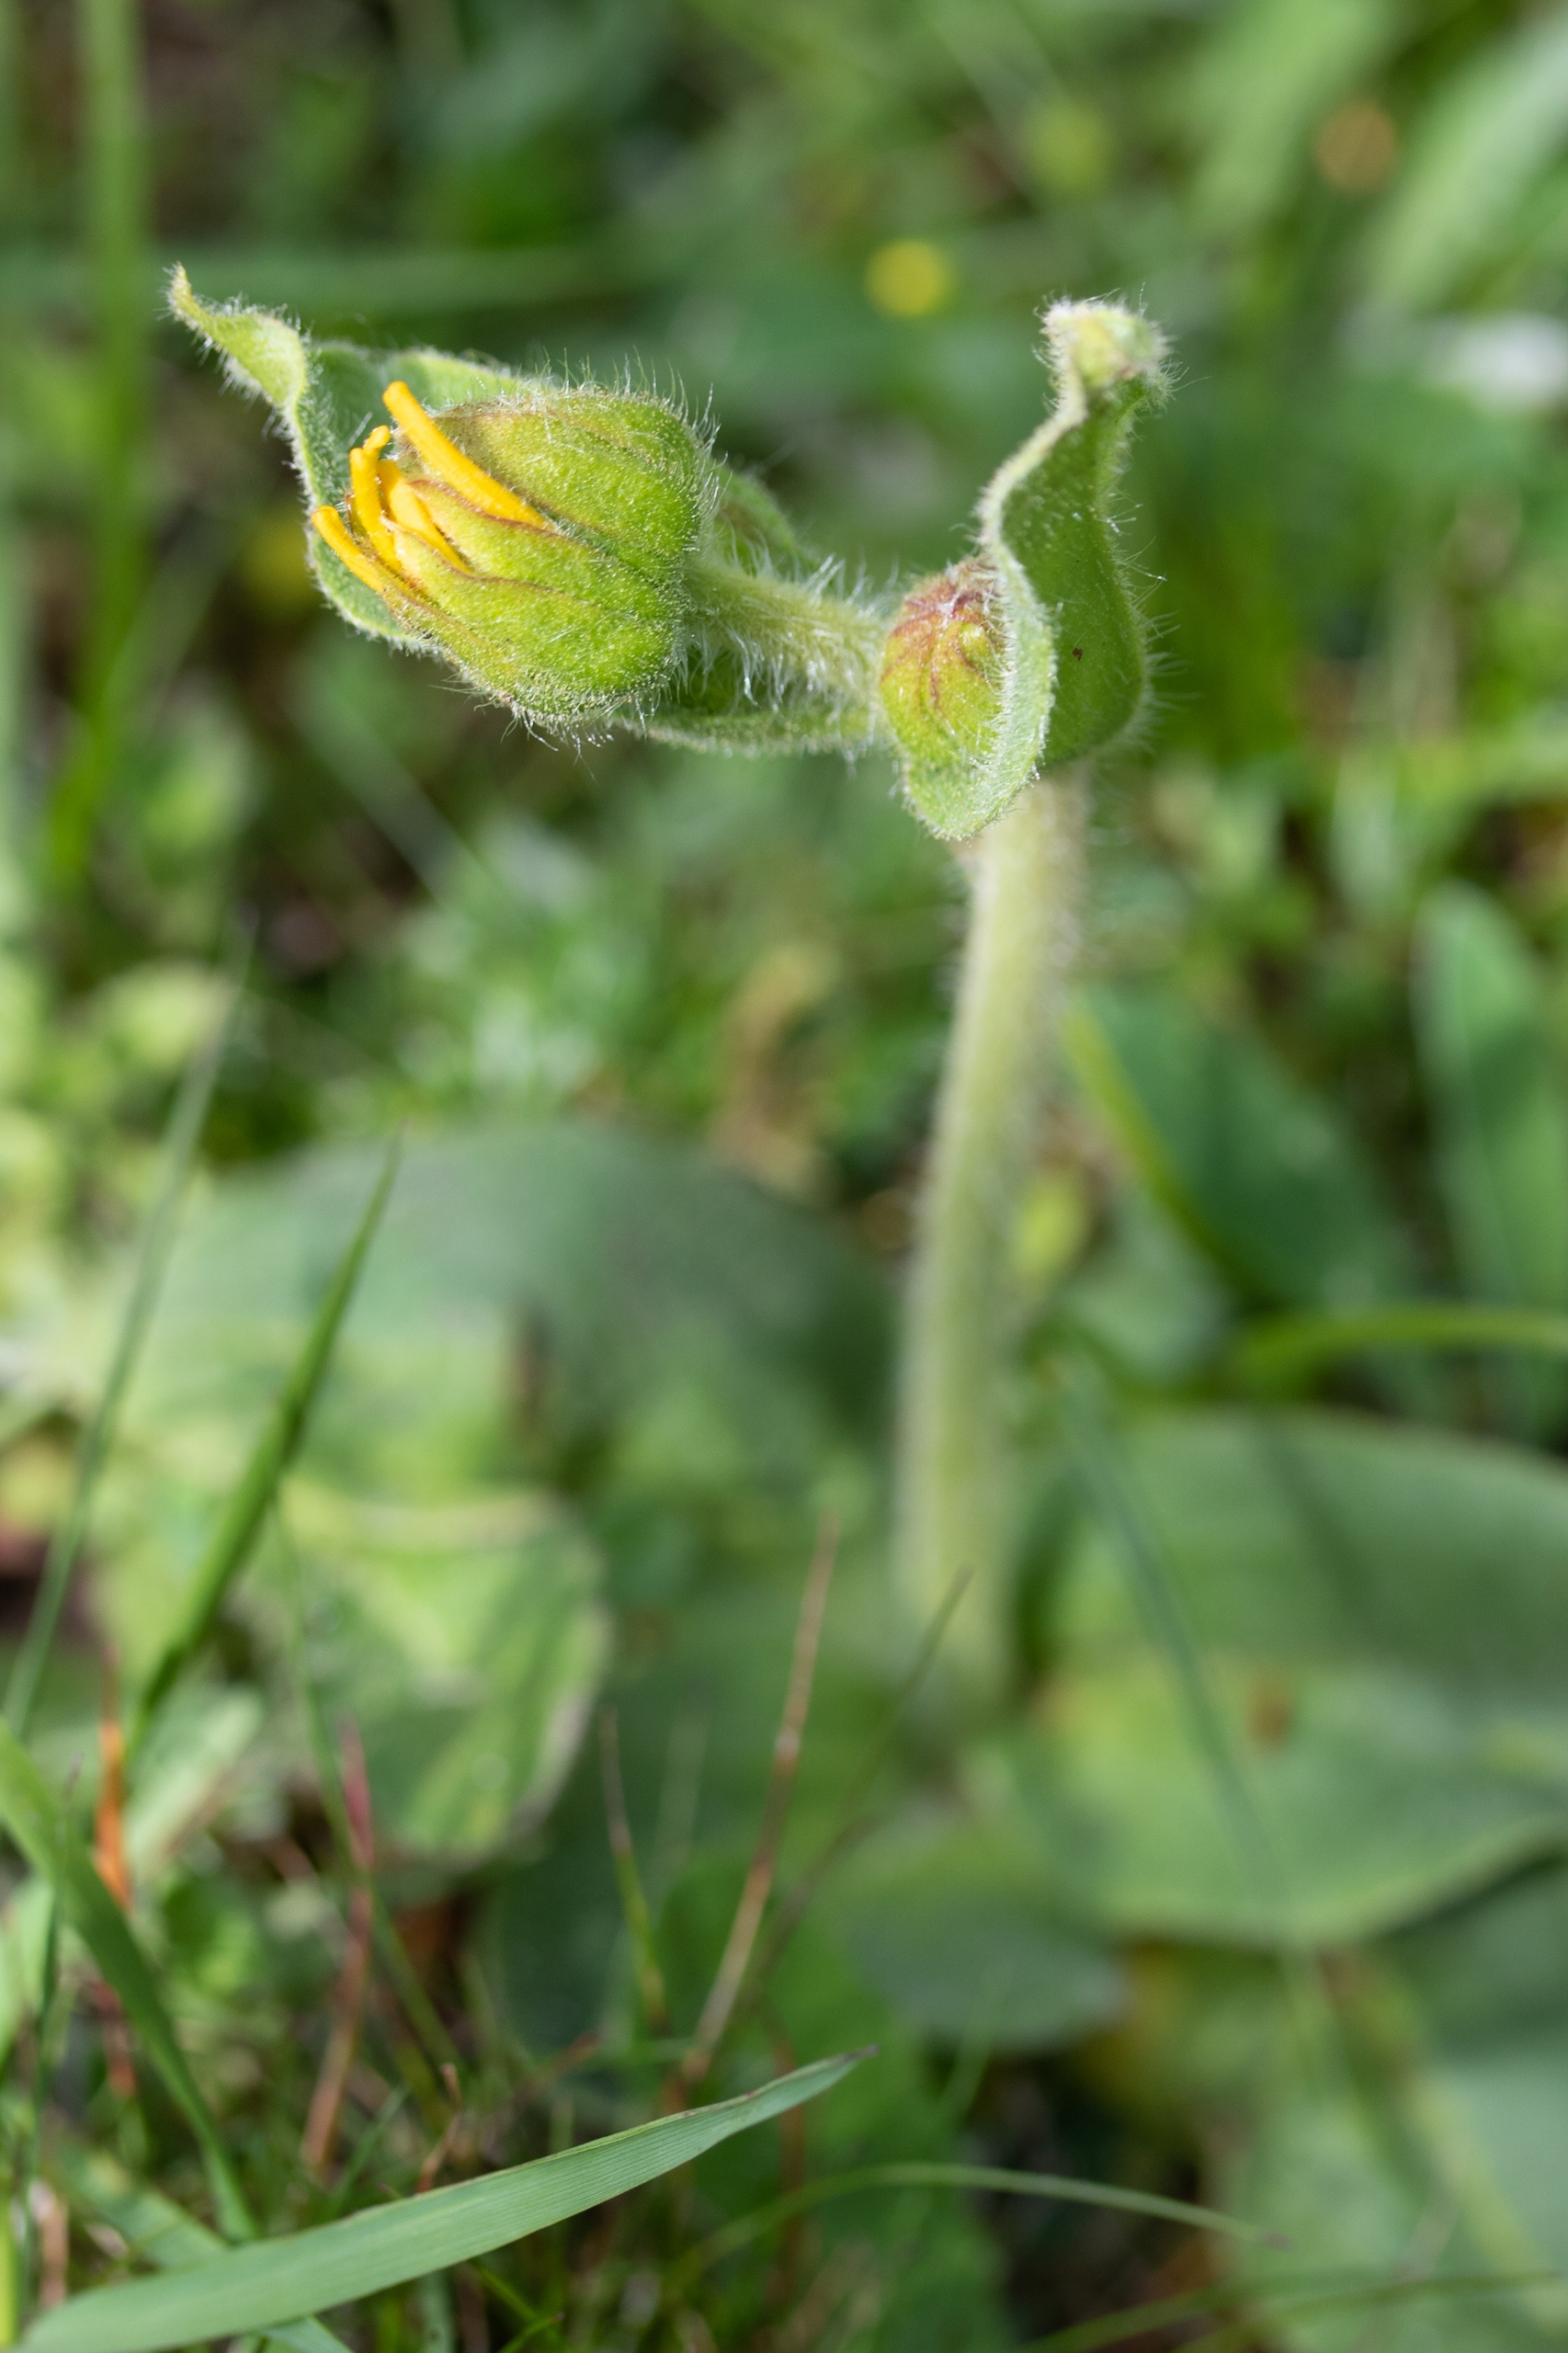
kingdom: Plantae
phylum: Tracheophyta
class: Magnoliopsida
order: Asterales
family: Asteraceae
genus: Arnica
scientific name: Arnica montana
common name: Guldblomme
